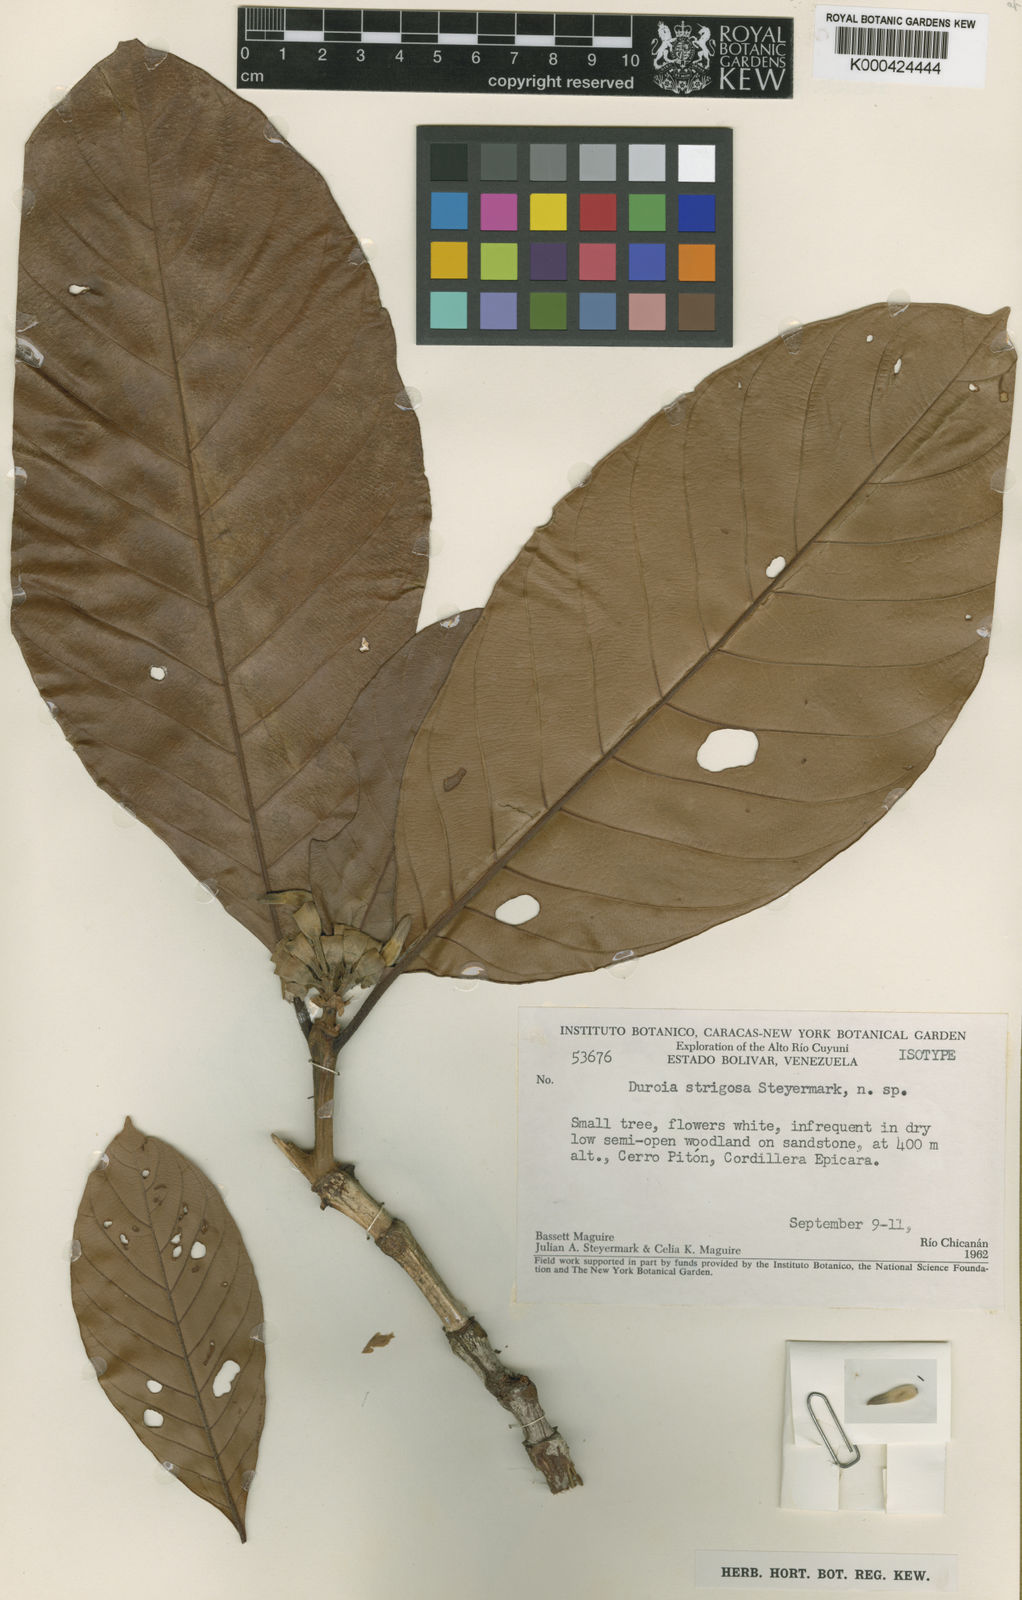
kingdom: Plantae
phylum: Tracheophyta
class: Magnoliopsida
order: Gentianales
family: Rubiaceae
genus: Duroia
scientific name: Duroia strigosa
